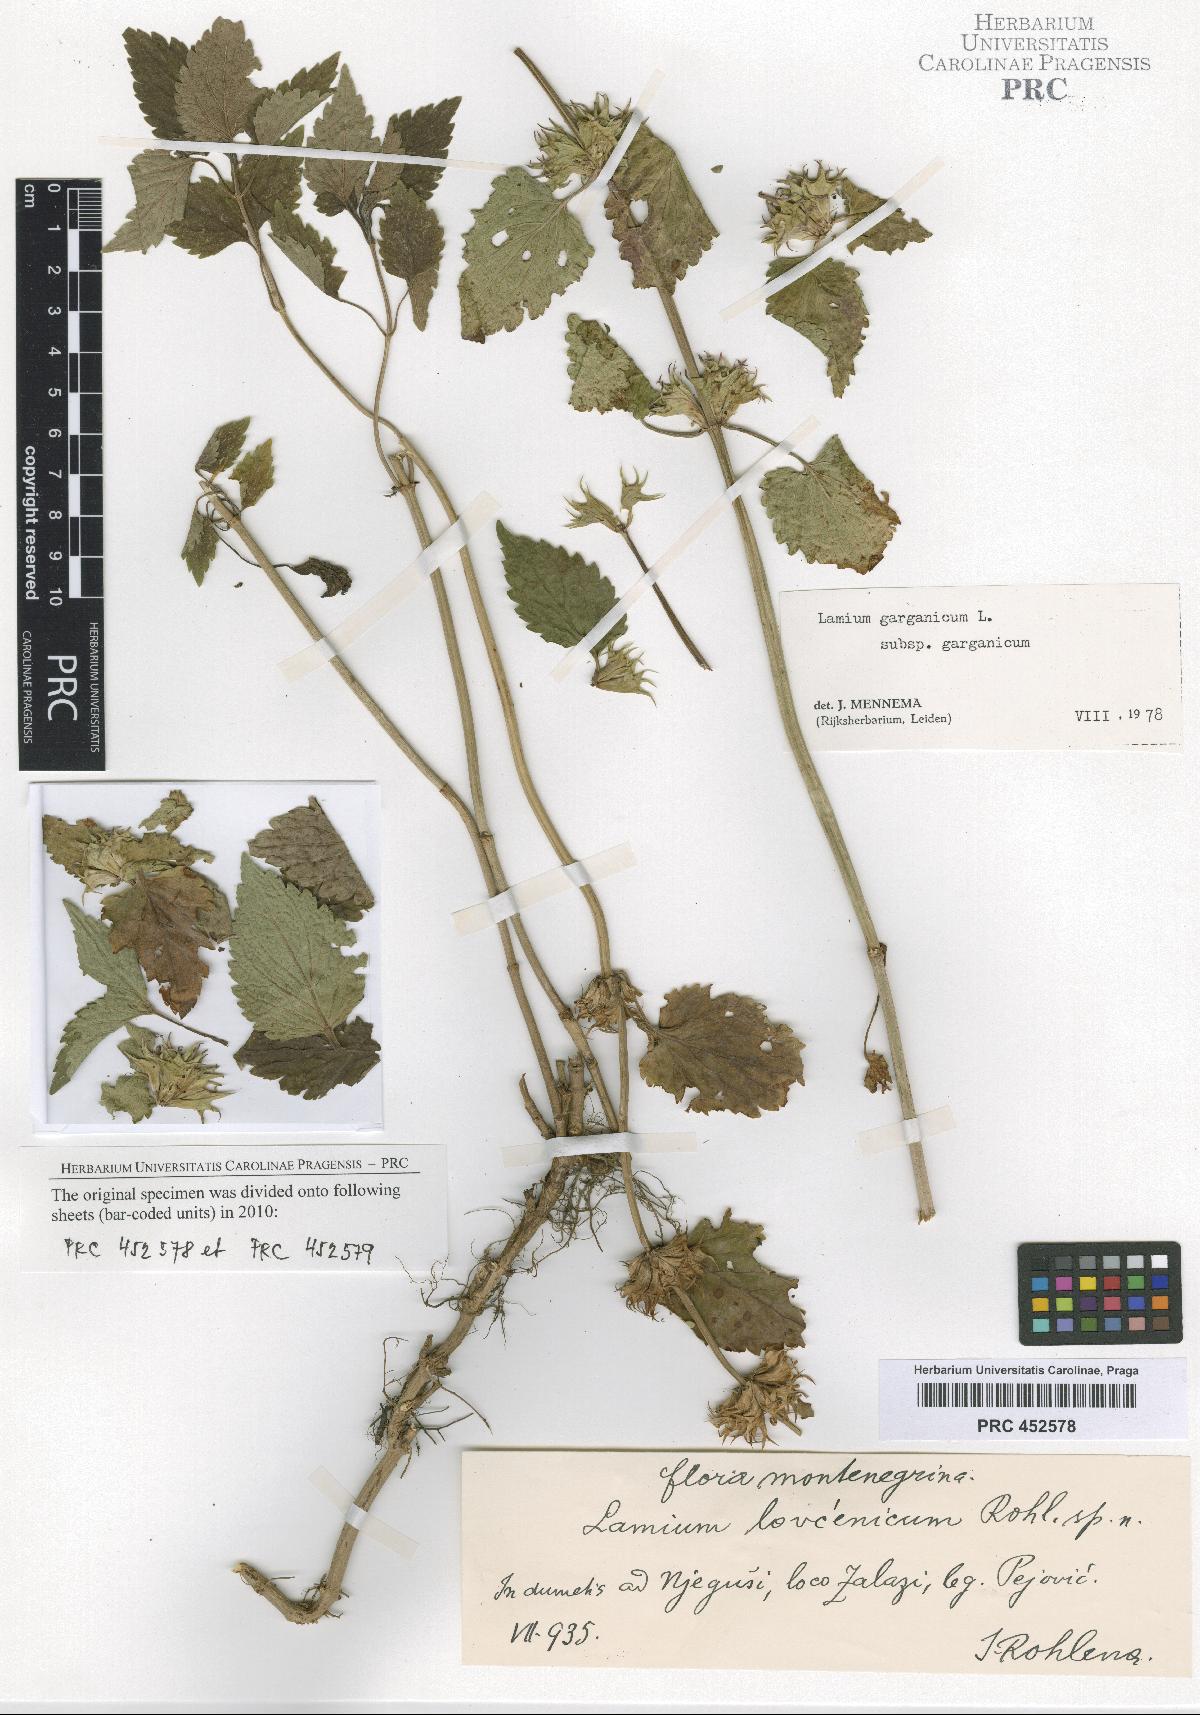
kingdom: Plantae
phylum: Tracheophyta
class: Magnoliopsida
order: Lamiales
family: Lamiaceae
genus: Lamium
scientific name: Lamium garganicum
